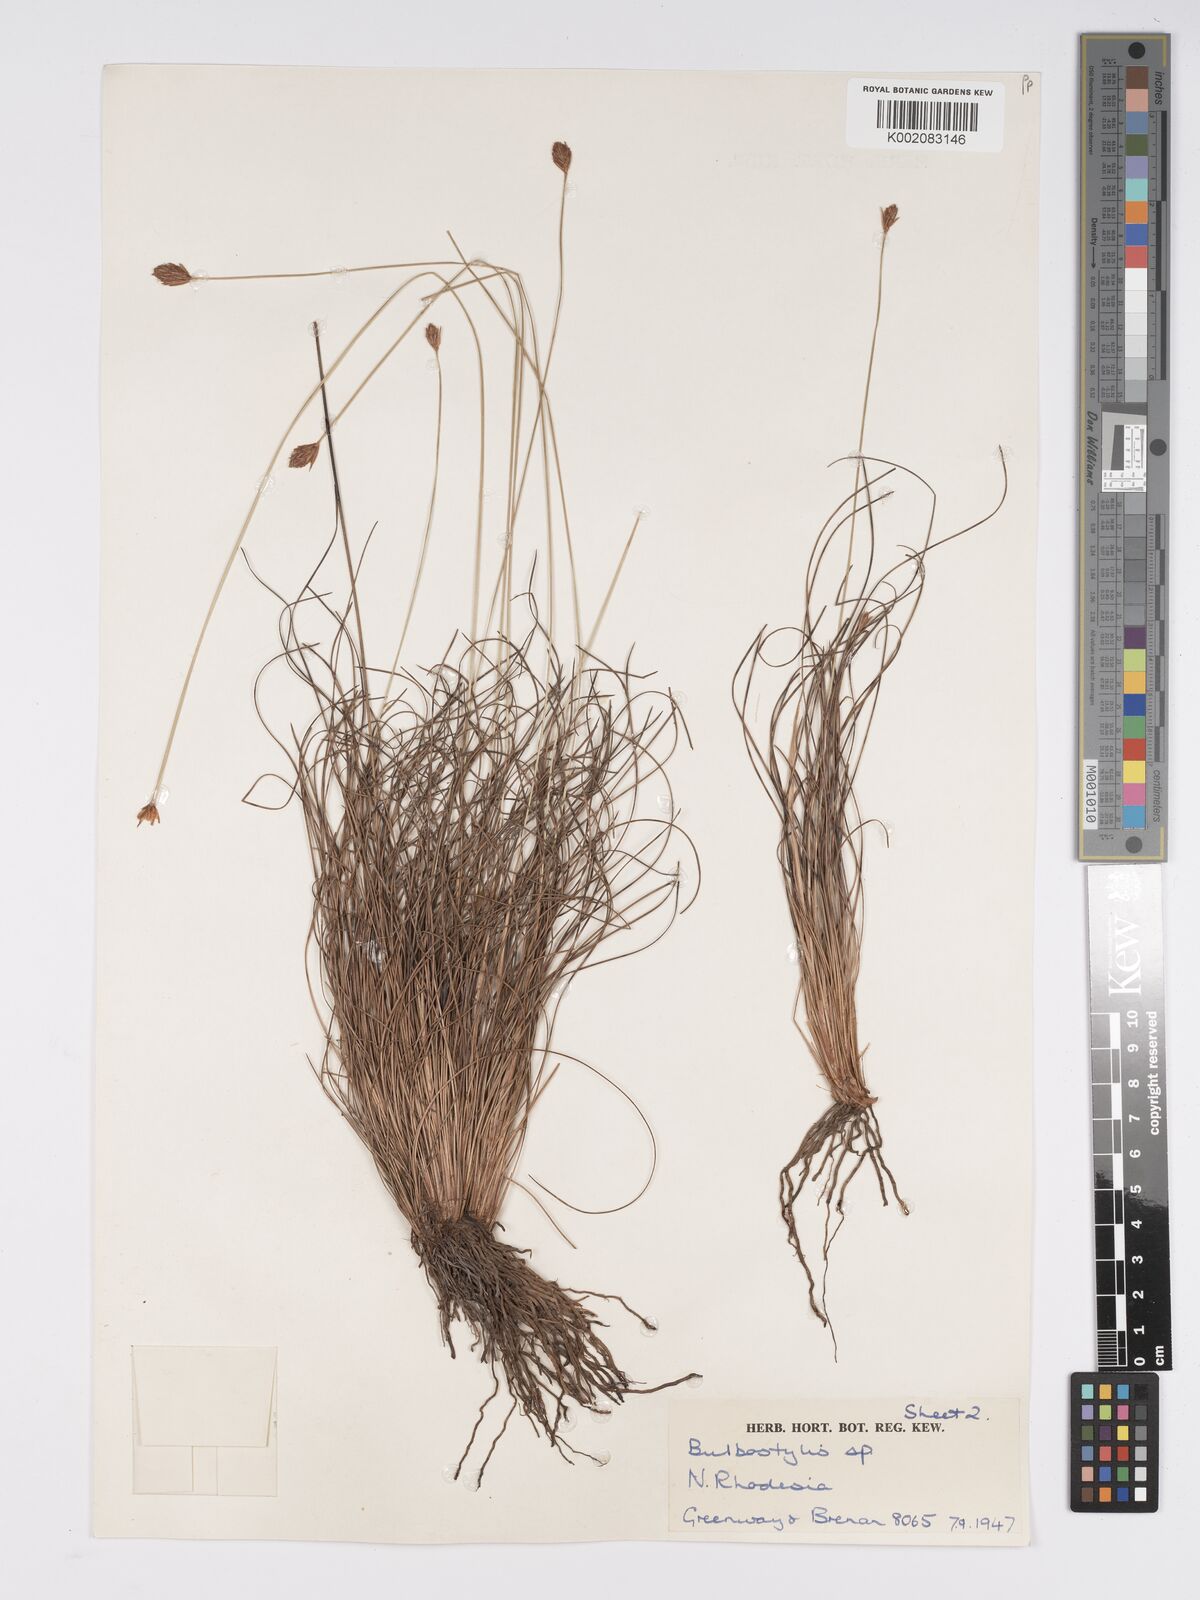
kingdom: Plantae
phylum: Tracheophyta
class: Liliopsida
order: Poales
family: Cyperaceae
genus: Bulbostylis
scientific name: Bulbostylis schoenoides
